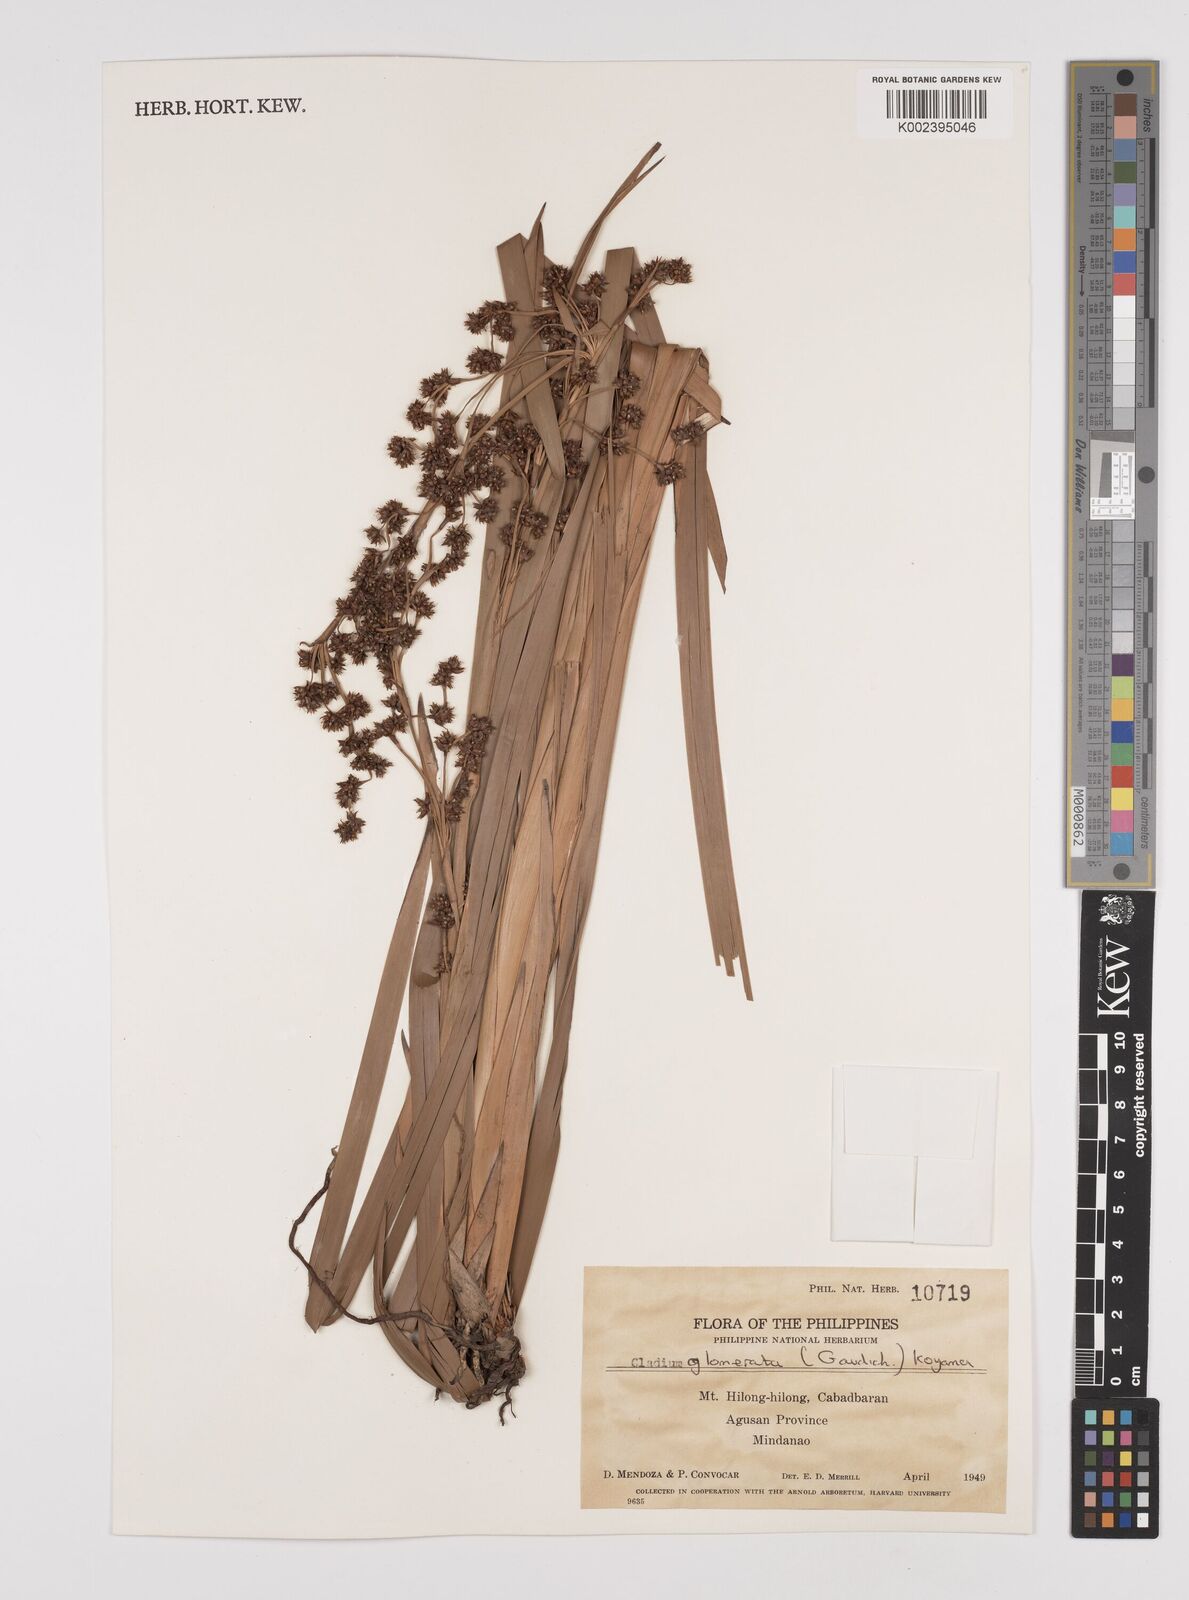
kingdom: Plantae
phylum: Tracheophyta
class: Liliopsida
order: Poales
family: Cyperaceae
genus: Machaerina
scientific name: Machaerina glomerata
